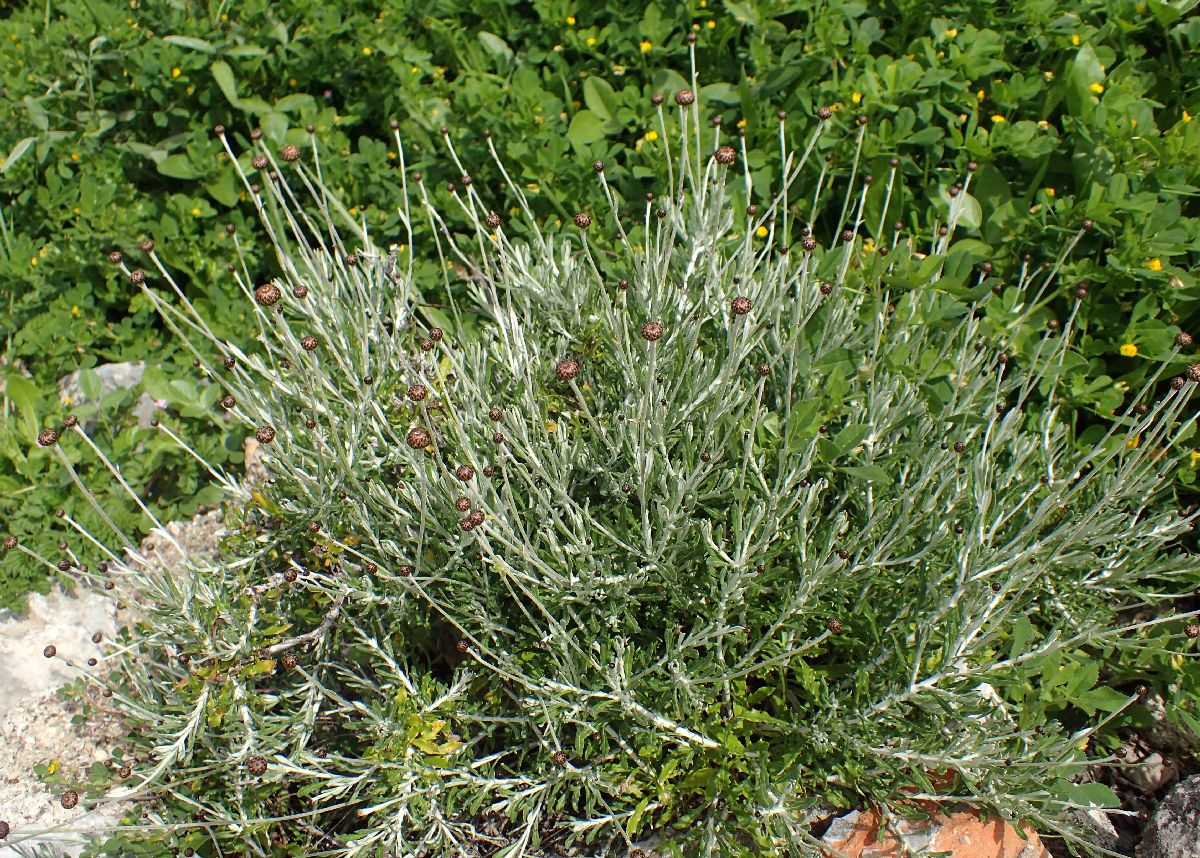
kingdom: Plantae
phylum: Tracheophyta
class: Magnoliopsida
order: Asterales
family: Asteraceae
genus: Phagnalon
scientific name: Phagnalon graecum
